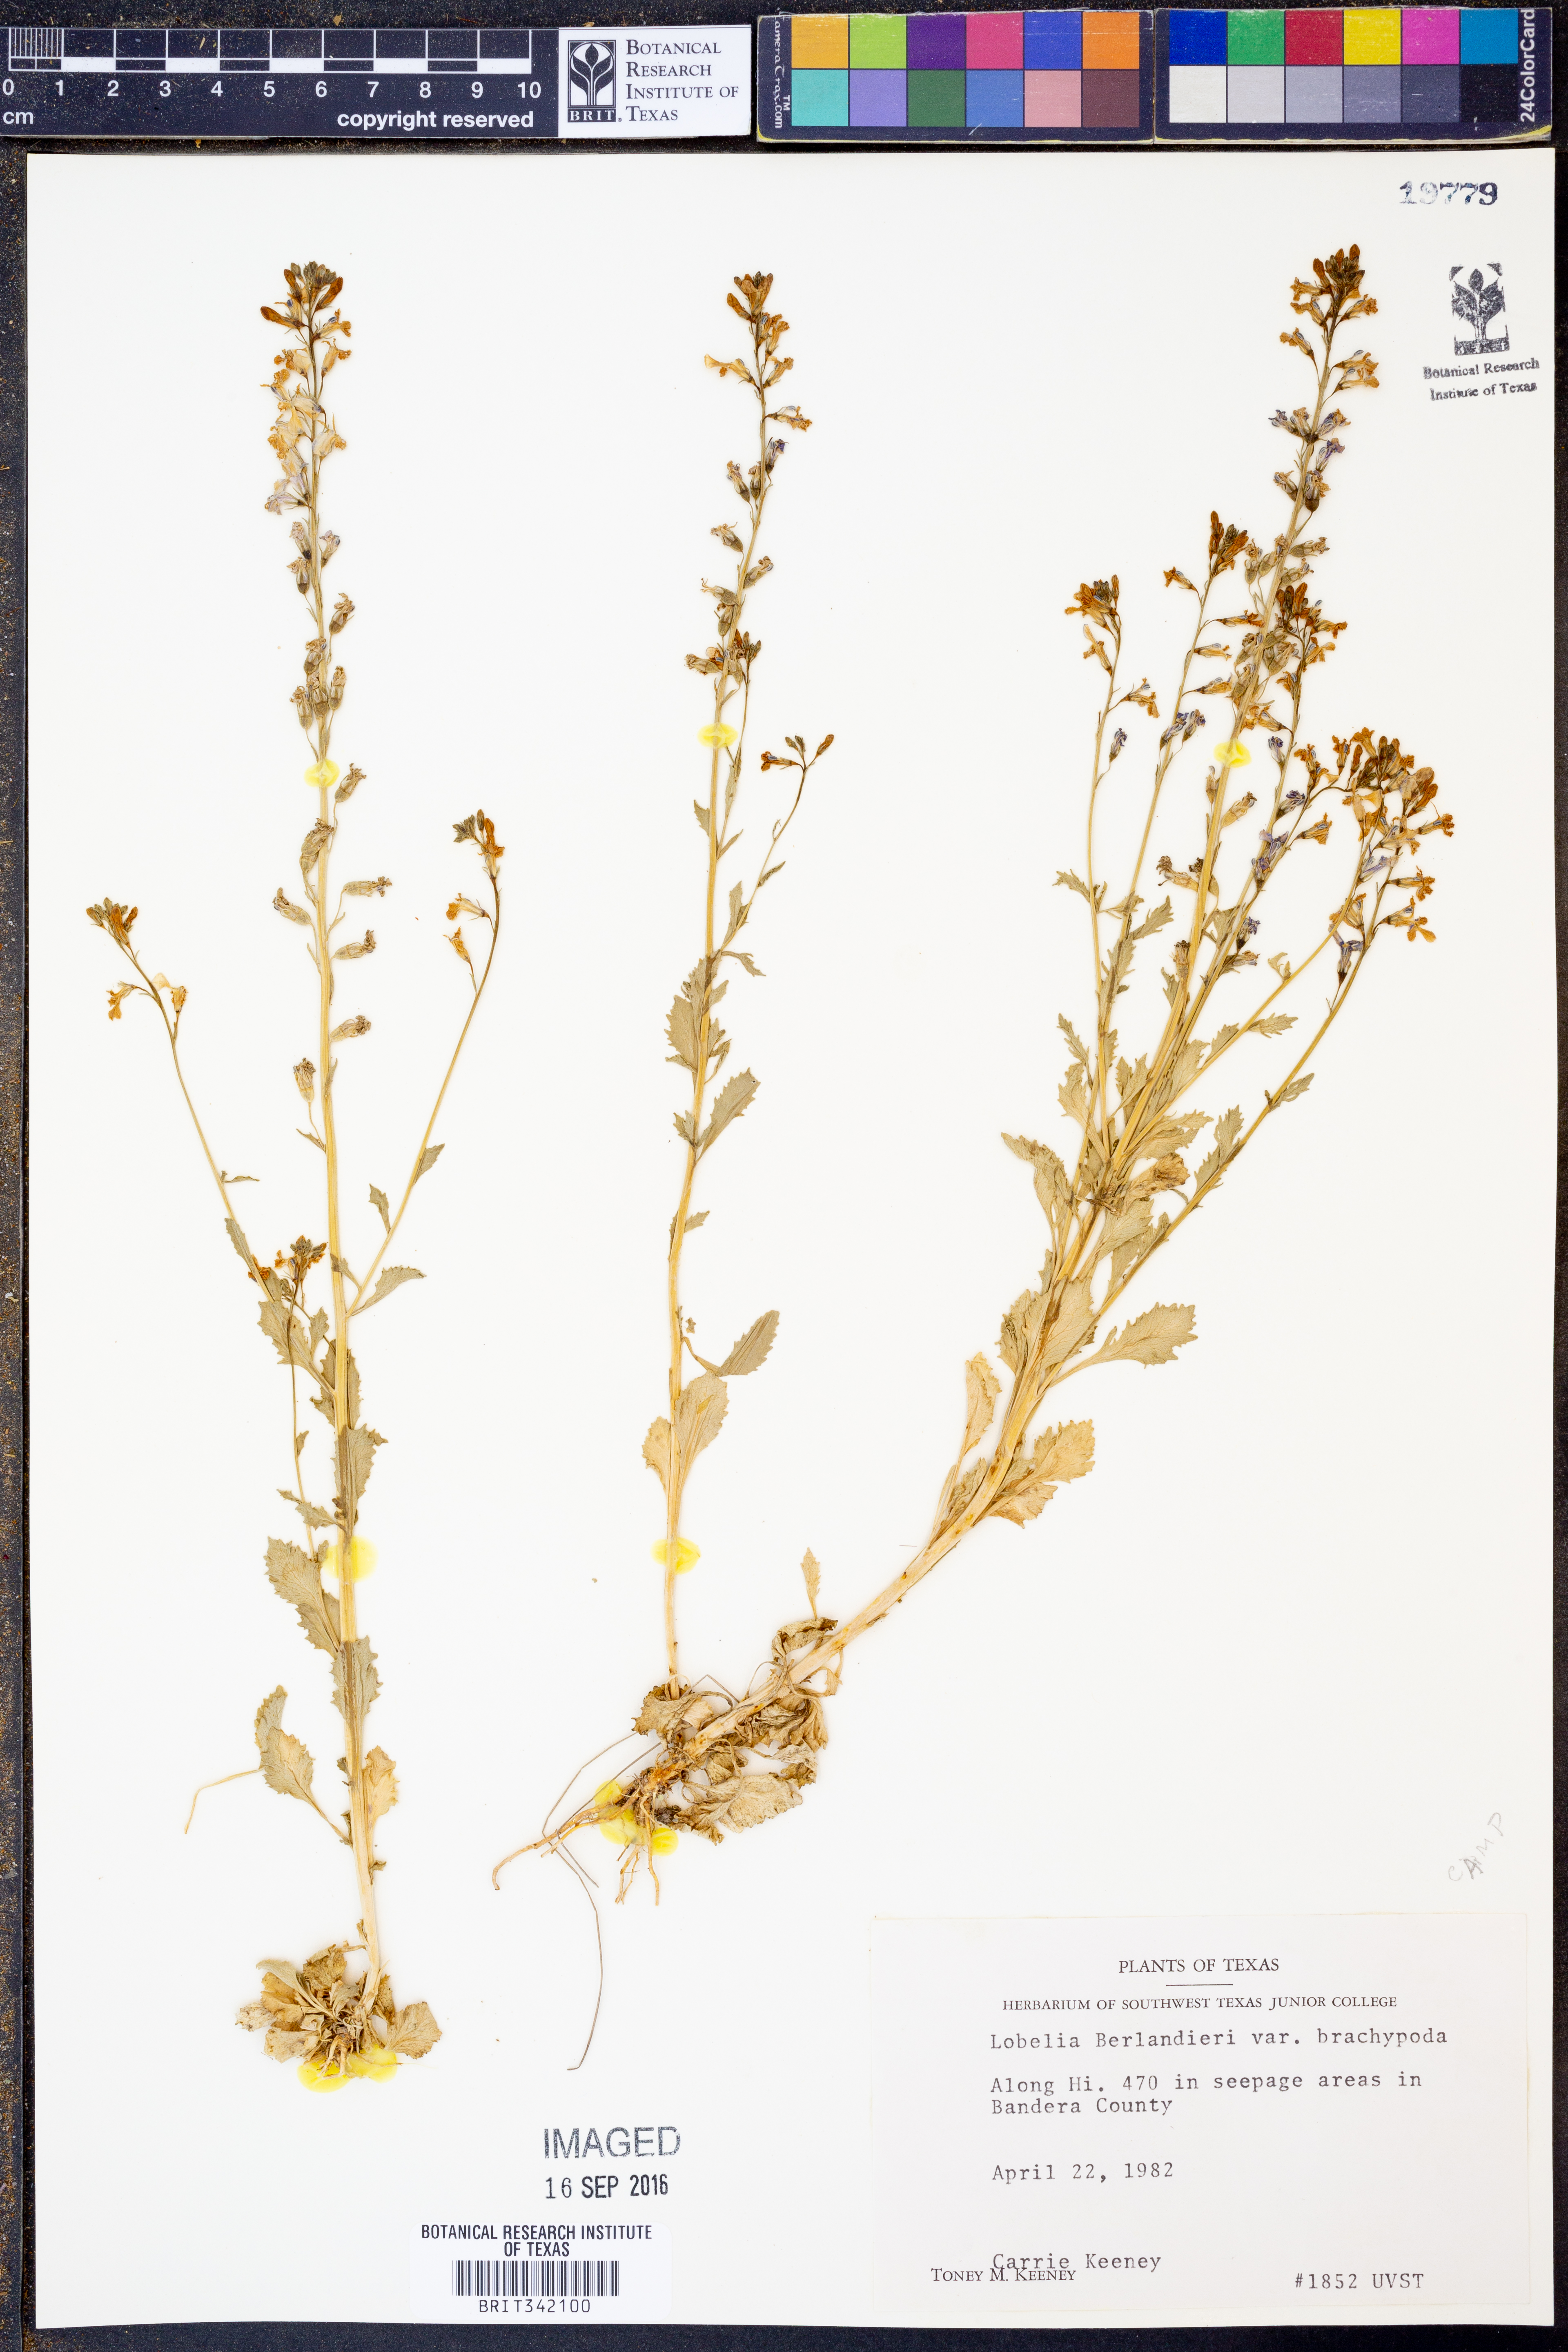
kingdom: Plantae
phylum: Tracheophyta
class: Magnoliopsida
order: Asterales
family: Campanulaceae
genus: Lobelia
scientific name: Lobelia berlandieri
